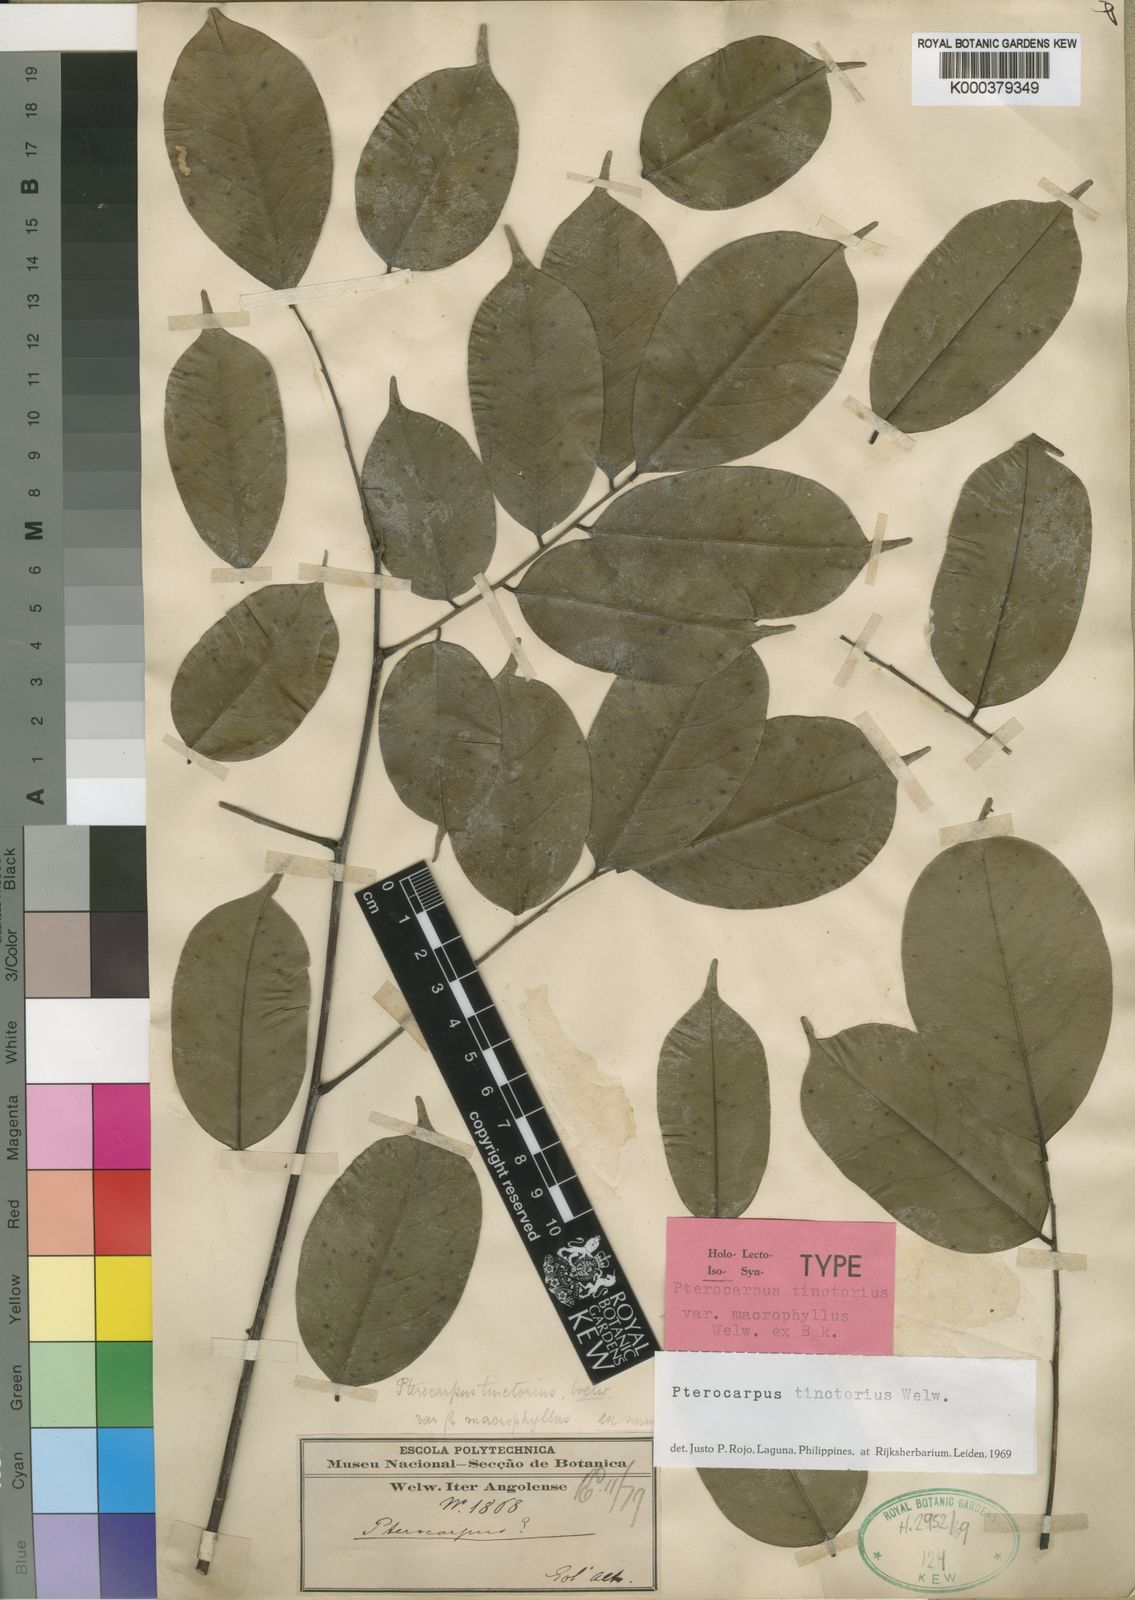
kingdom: Plantae
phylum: Tracheophyta
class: Magnoliopsida
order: Fabales
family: Fabaceae
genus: Pterocarpus
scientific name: Pterocarpus tinctorius
